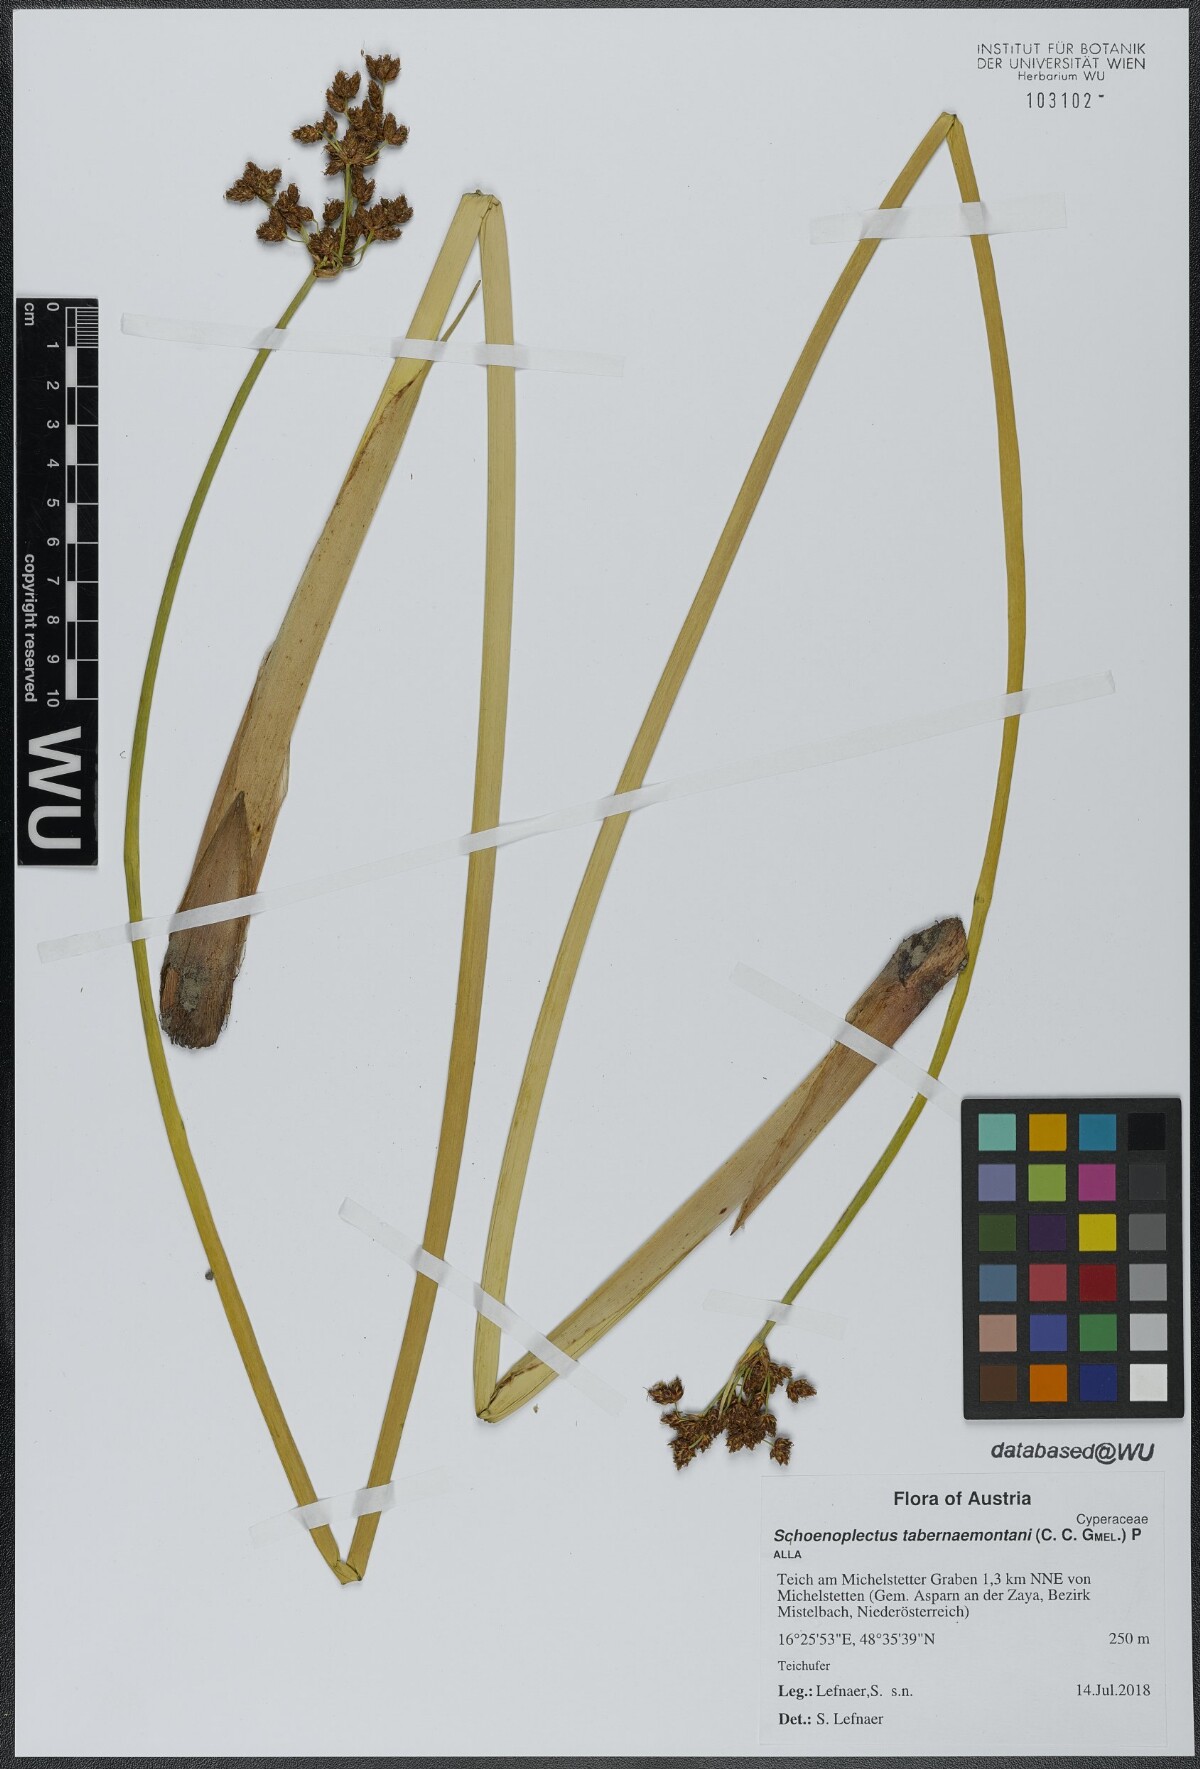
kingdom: Plantae
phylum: Tracheophyta
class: Liliopsida
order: Poales
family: Cyperaceae
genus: Schoenoplectus
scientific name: Schoenoplectus tabernaemontani
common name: Grey club-rush
